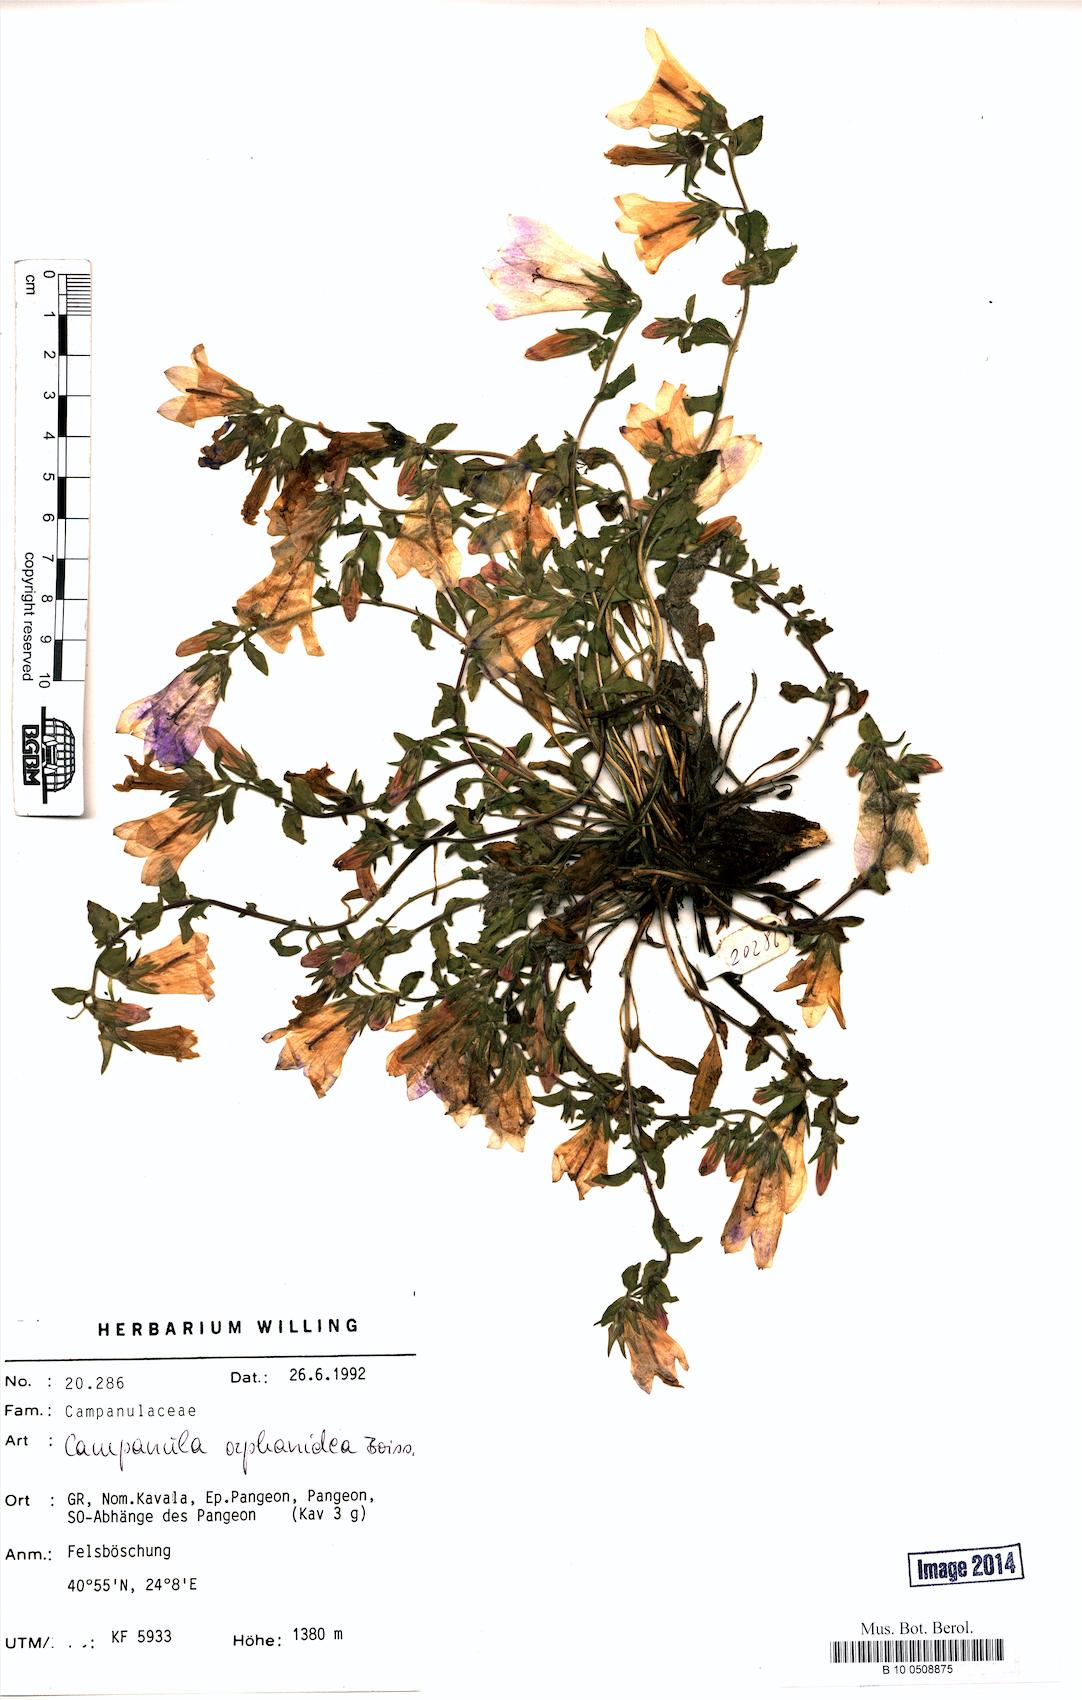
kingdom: Plantae
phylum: Tracheophyta
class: Magnoliopsida
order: Asterales
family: Campanulaceae
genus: Campanula
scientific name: Campanula orphanidea
